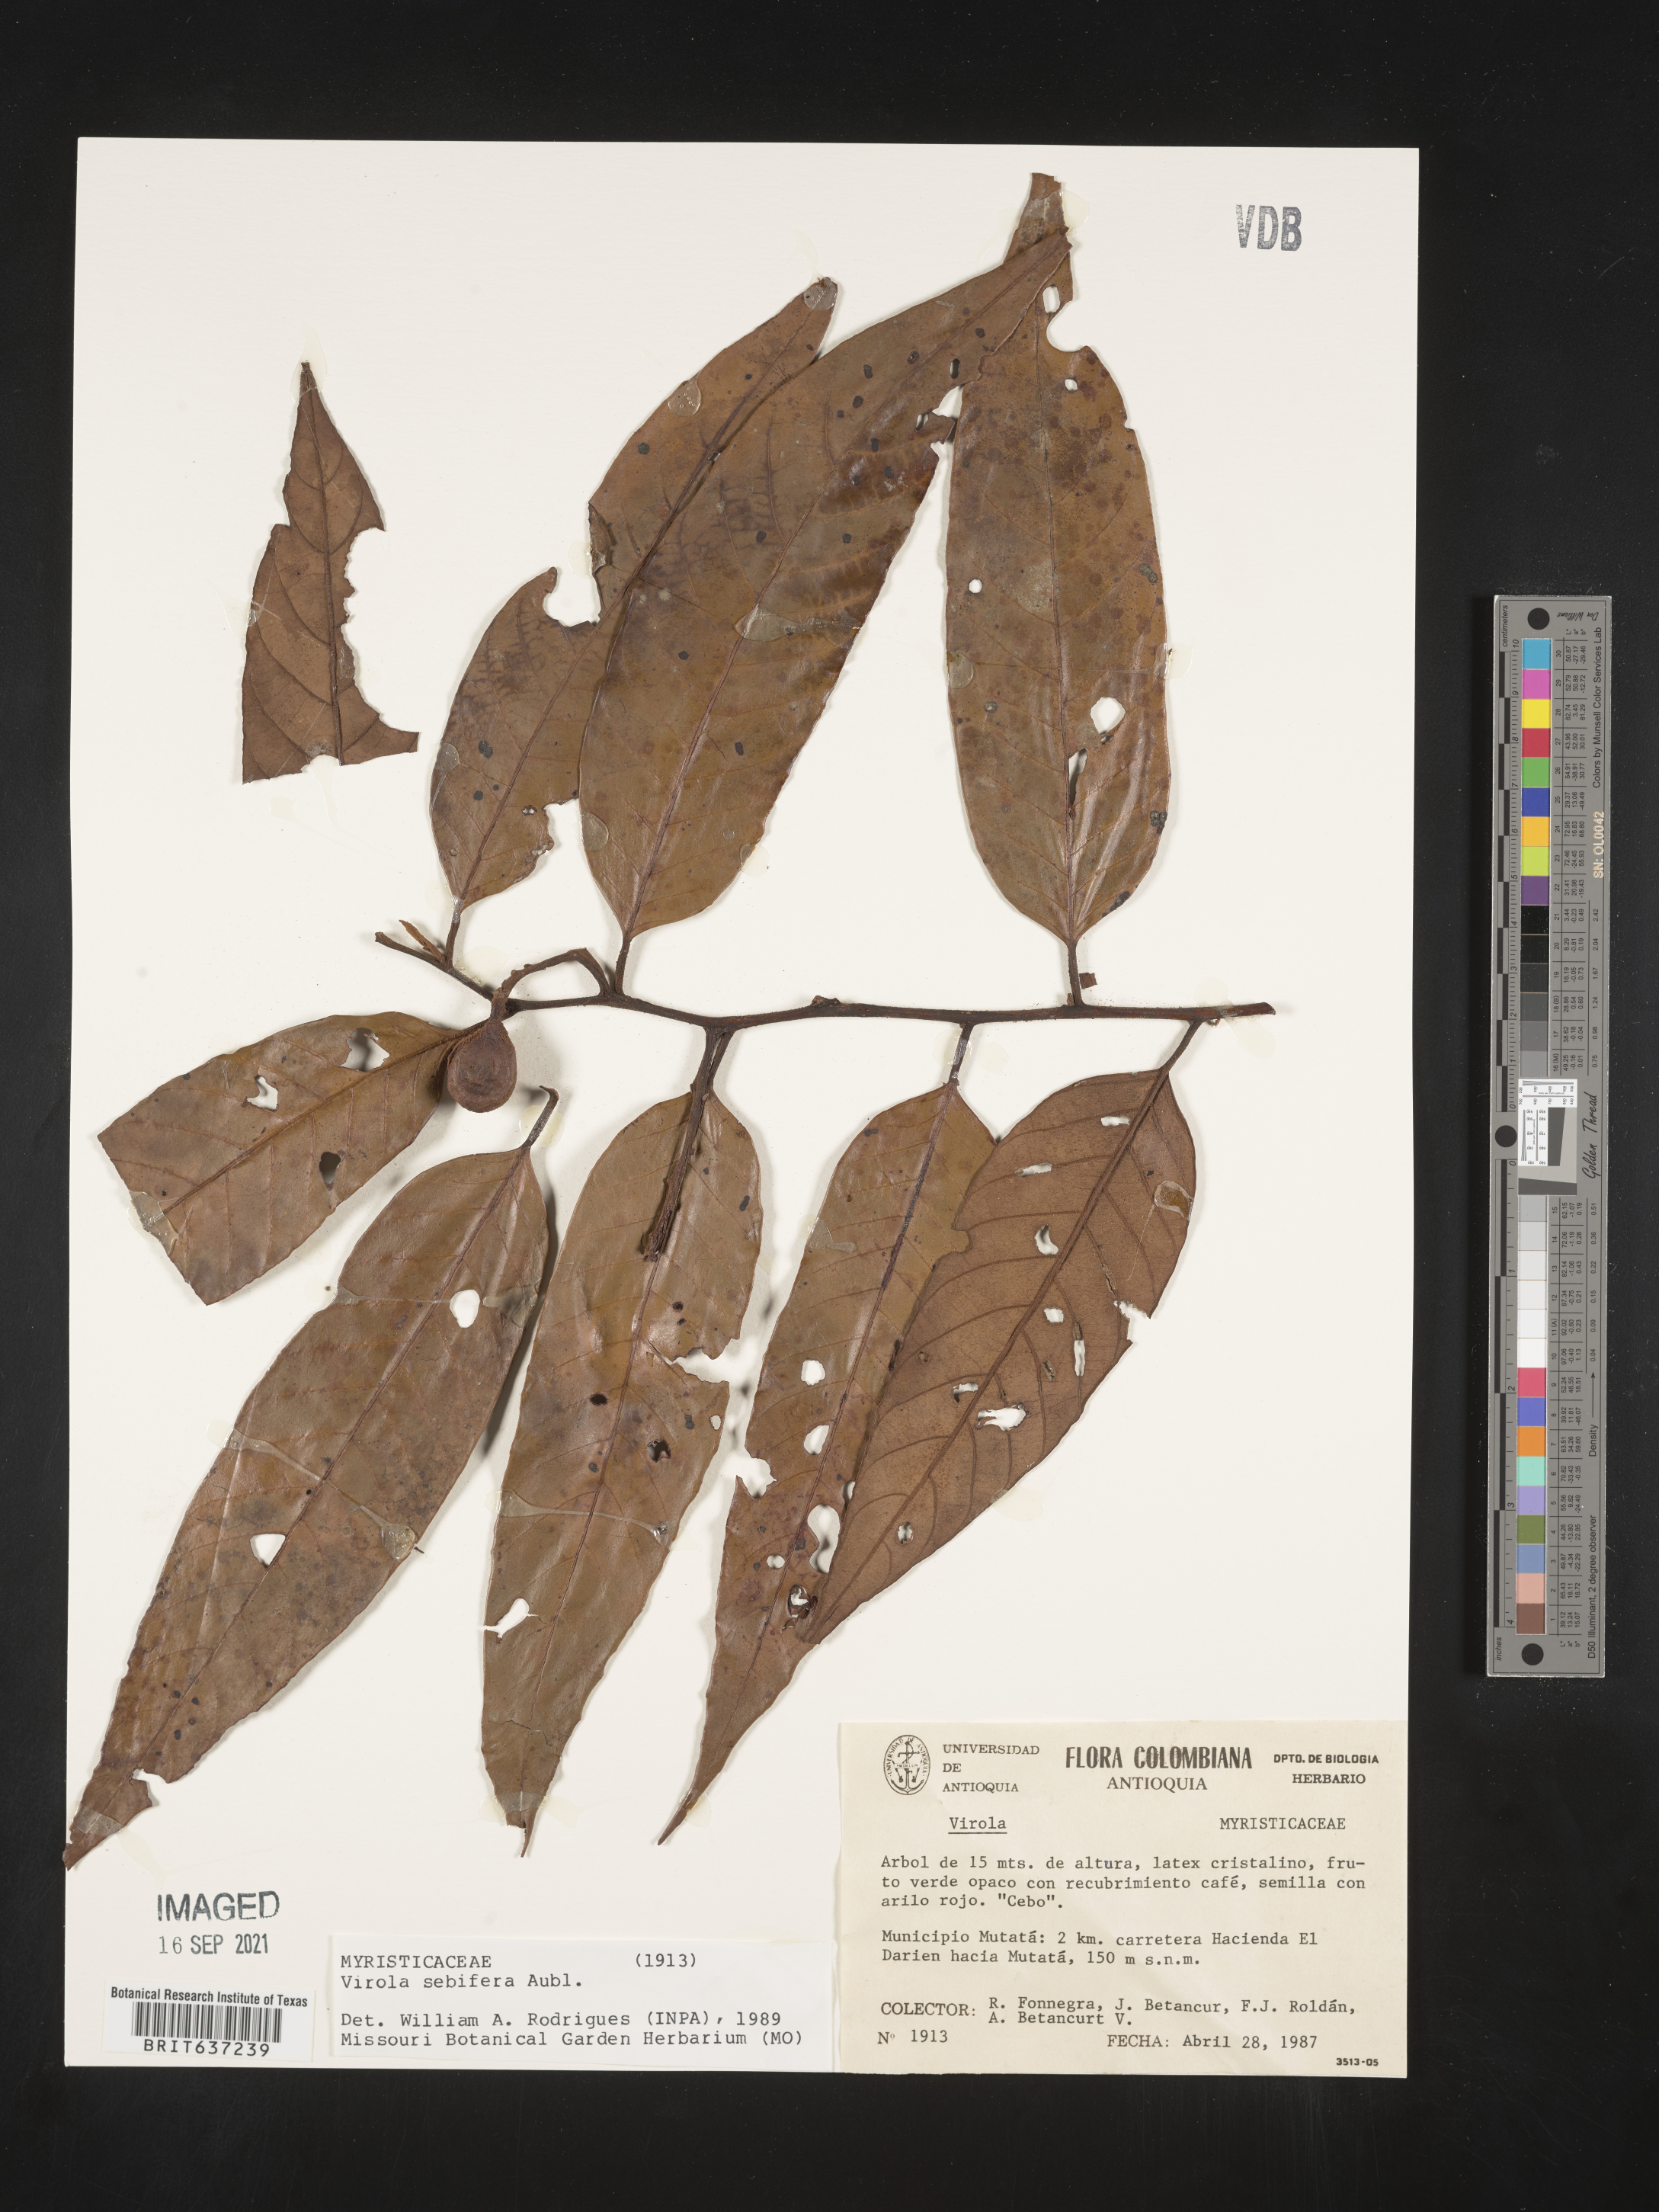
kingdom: Plantae
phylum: Tracheophyta
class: Magnoliopsida
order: Magnoliales
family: Myristicaceae
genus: Virola
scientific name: Virola
